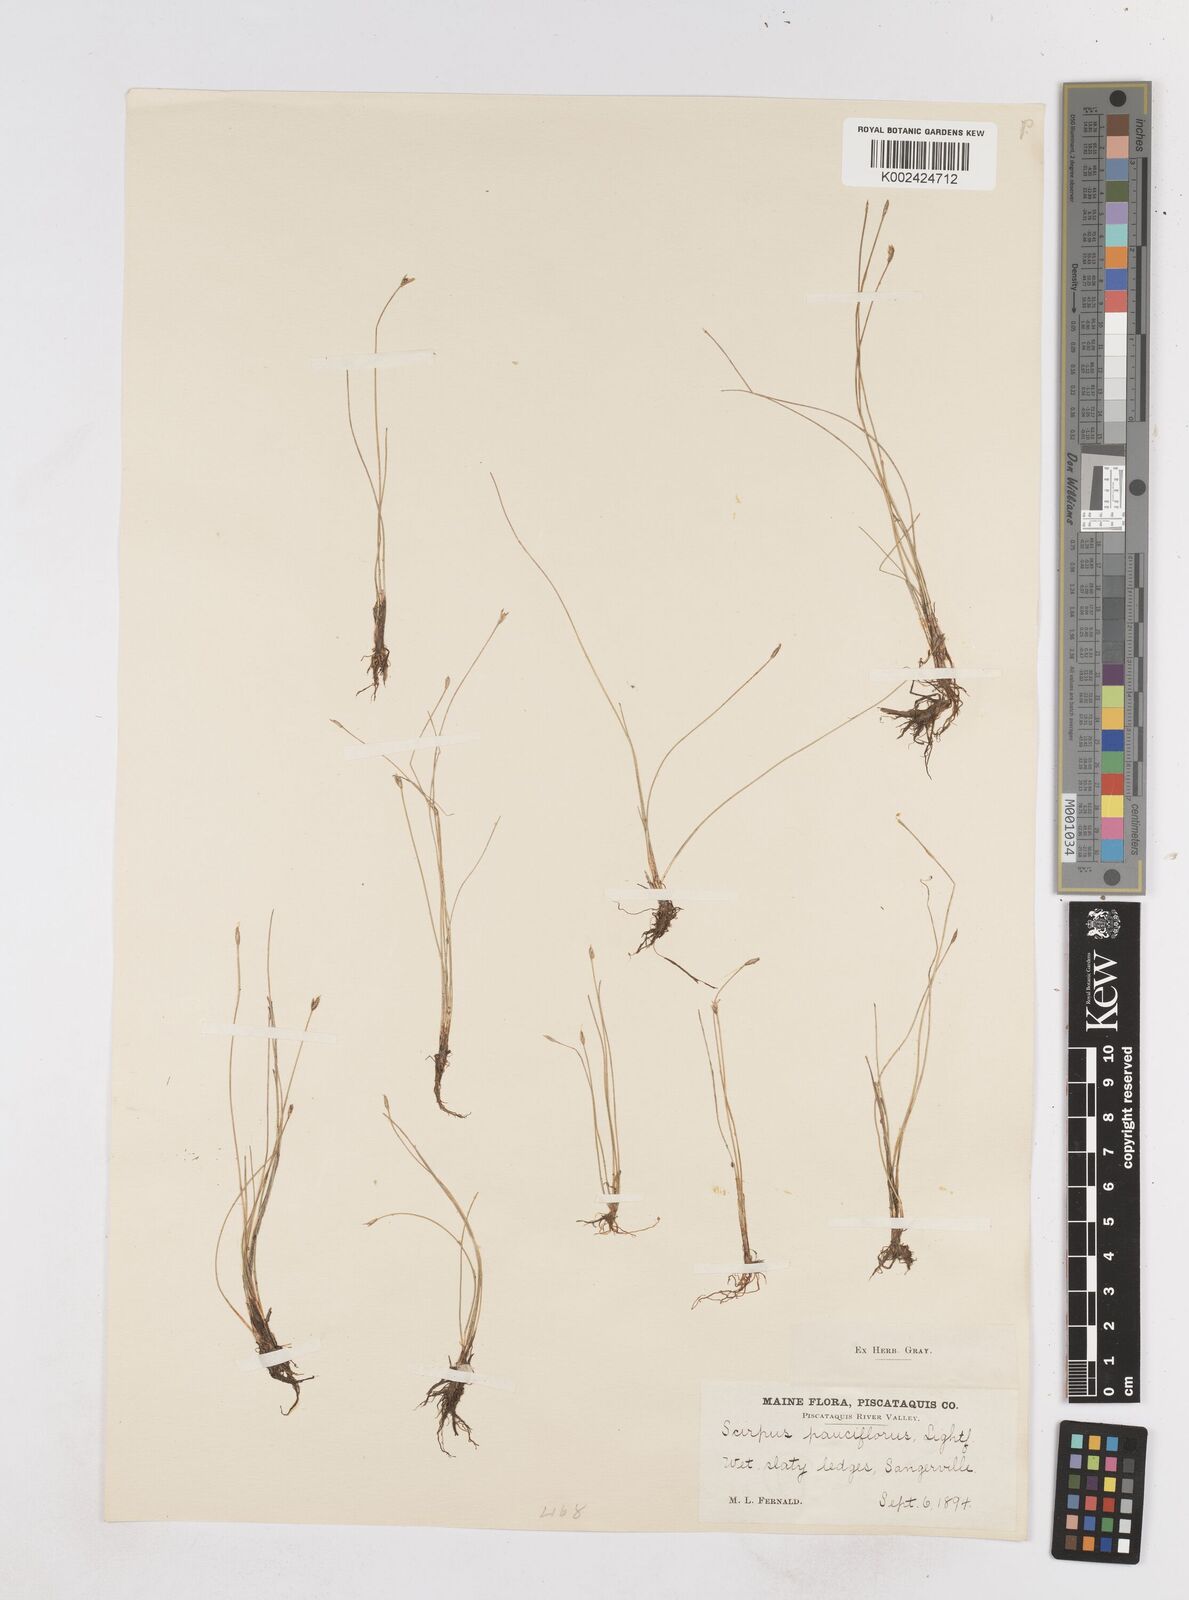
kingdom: Plantae
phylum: Tracheophyta
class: Liliopsida
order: Poales
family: Cyperaceae
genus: Eleocharis
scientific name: Eleocharis quinqueflora
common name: Few-flowered spike-rush
